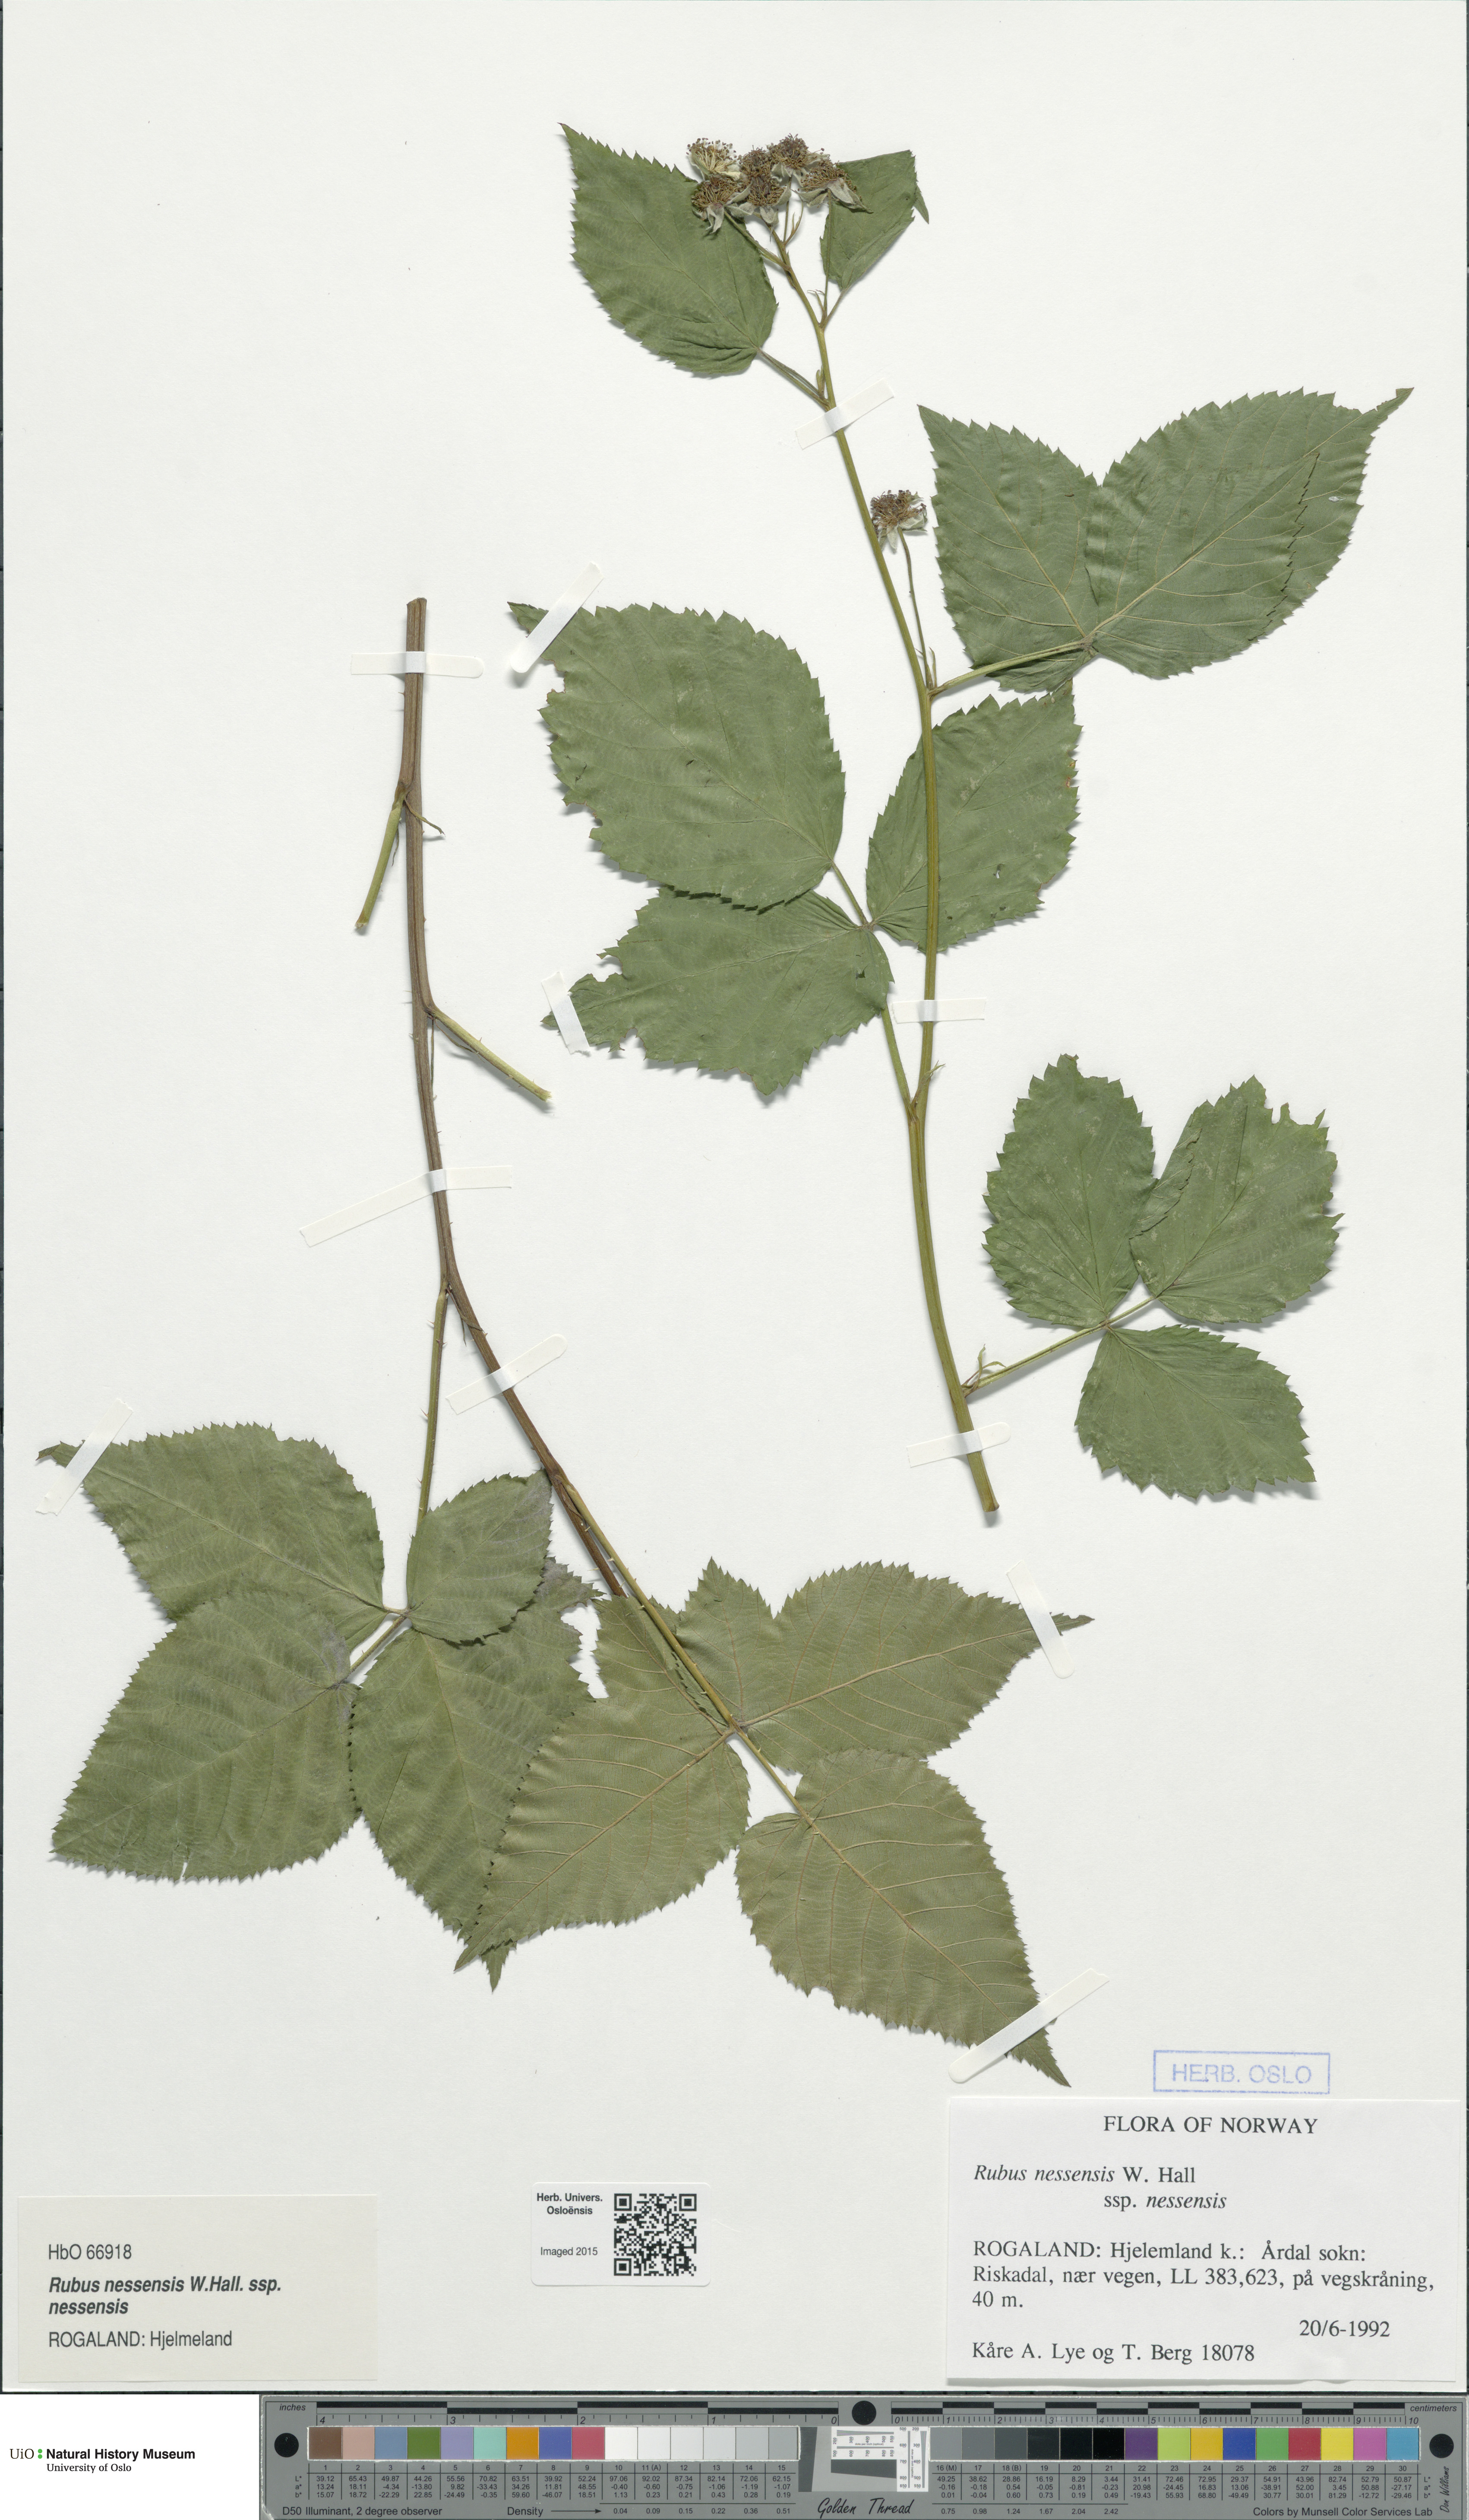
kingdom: Plantae
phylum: Tracheophyta
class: Magnoliopsida
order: Rosales
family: Rosaceae
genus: Rubus
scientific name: Rubus polonicus
